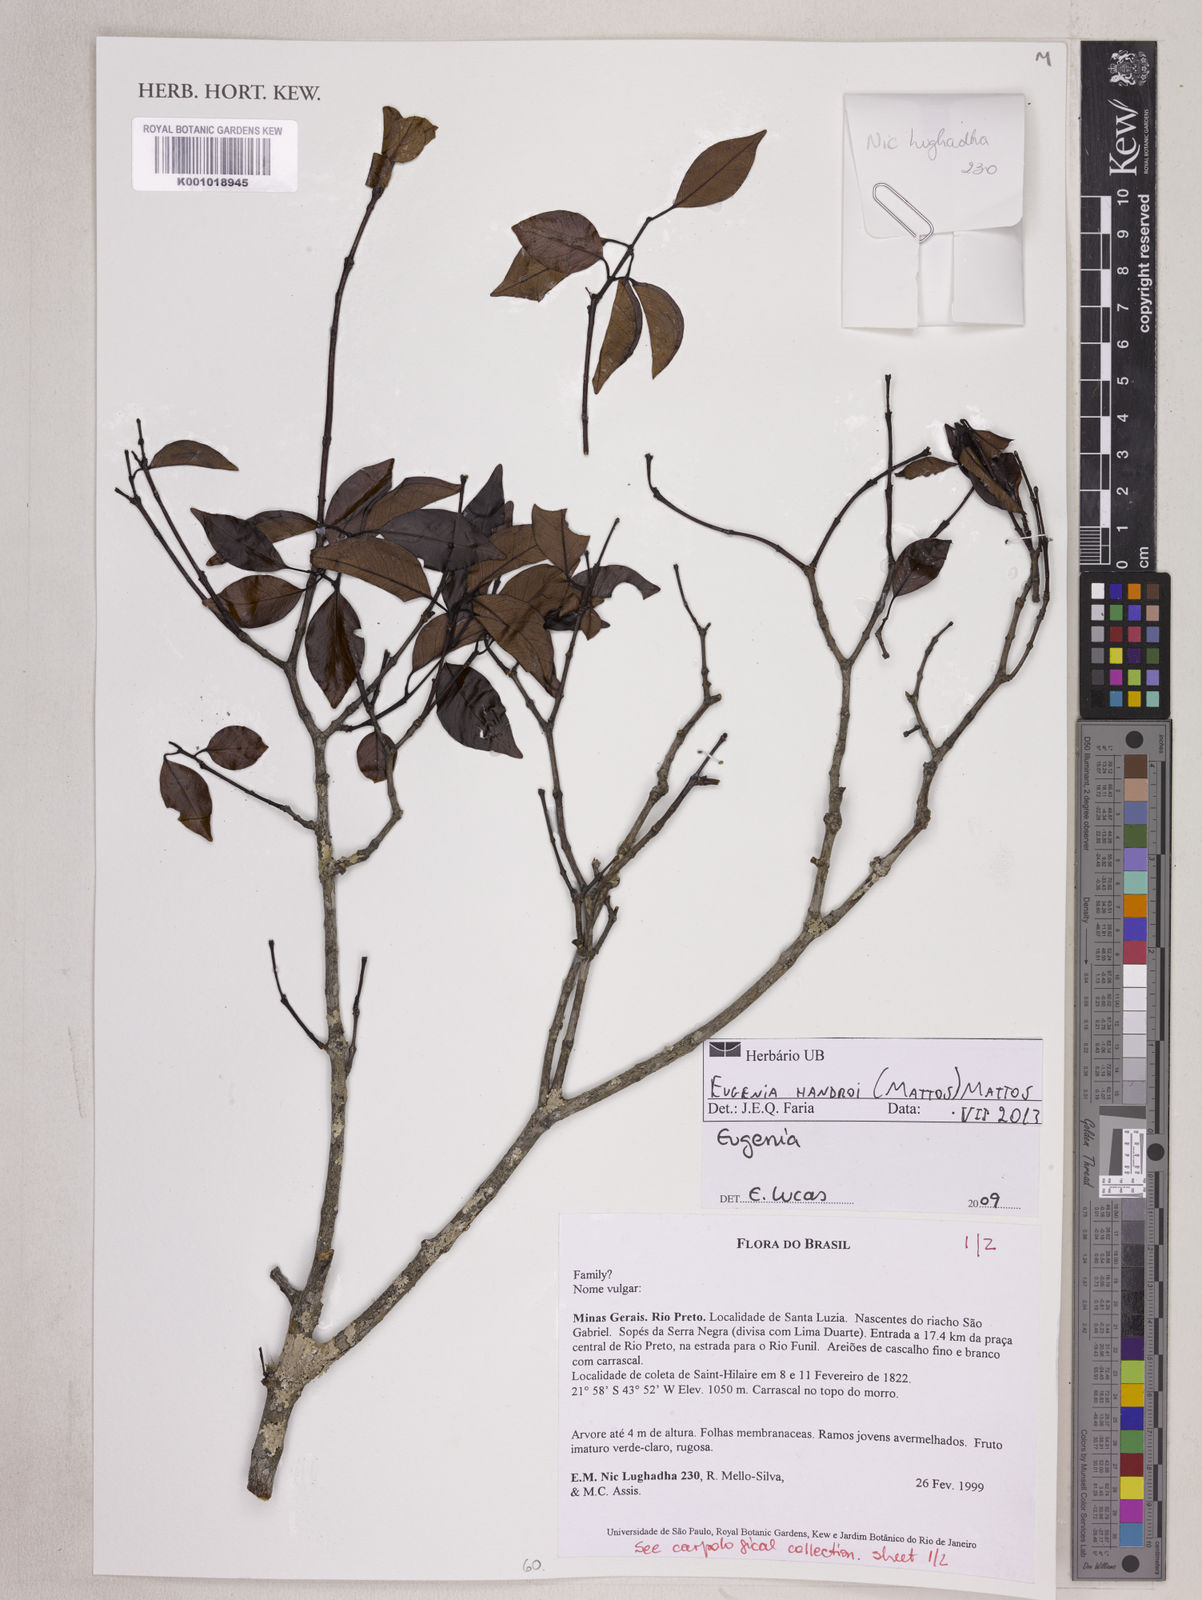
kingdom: Plantae
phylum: Tracheophyta
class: Magnoliopsida
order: Myrtales
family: Myrtaceae
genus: Eugenia
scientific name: Eugenia handroi
